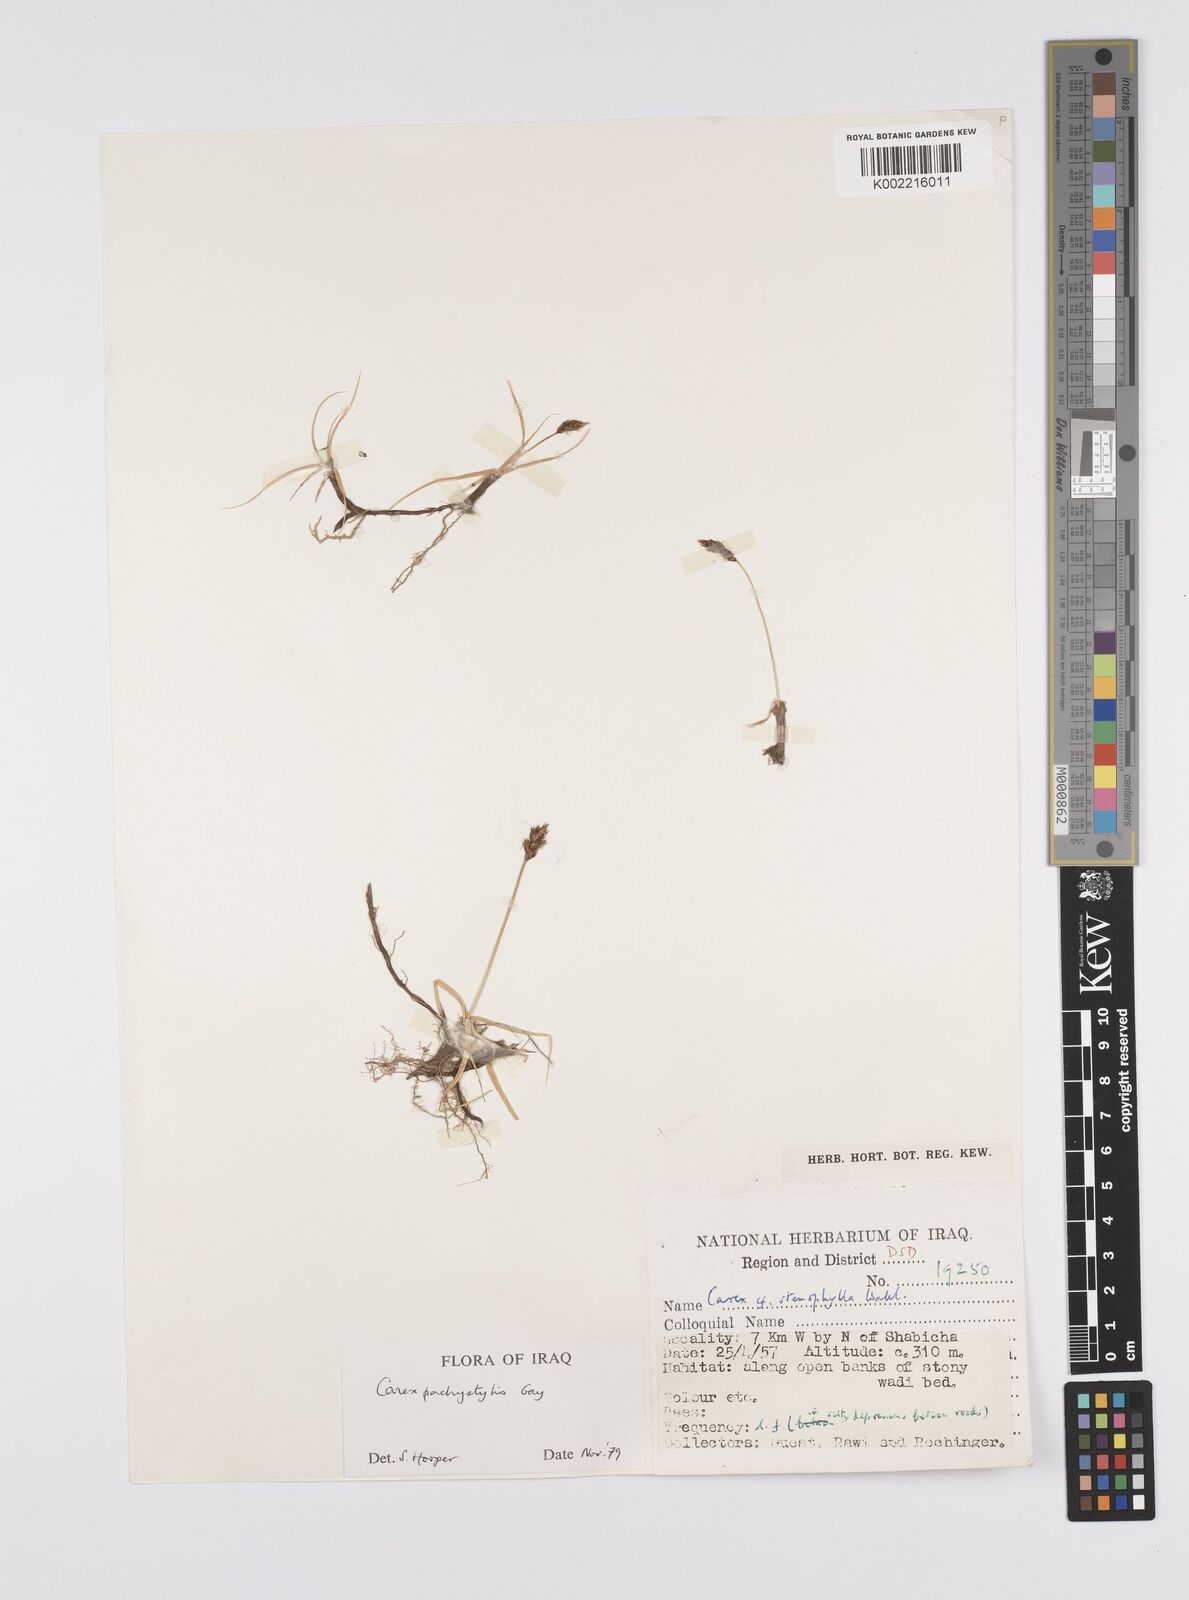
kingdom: Plantae
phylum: Tracheophyta
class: Liliopsida
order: Poales
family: Cyperaceae
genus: Carex
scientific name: Carex pachystylis
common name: Thick-stem sedge
